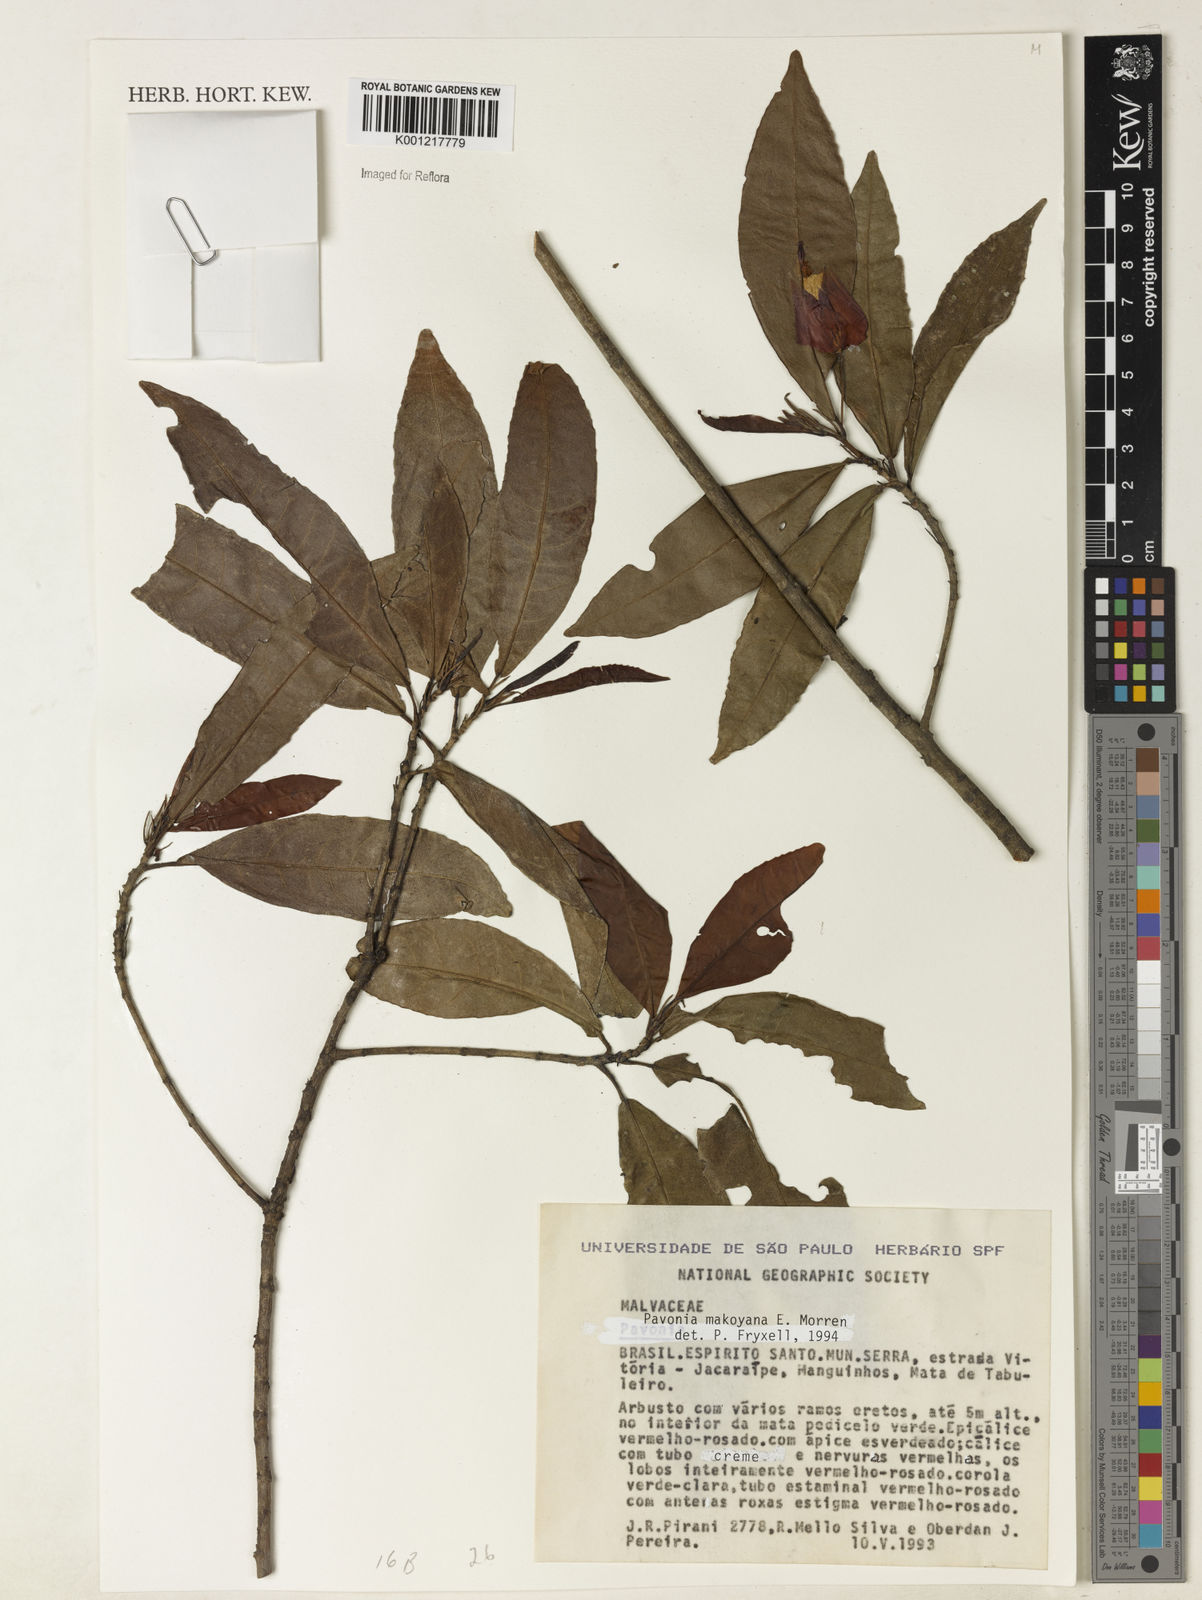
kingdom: Plantae
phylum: Tracheophyta
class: Magnoliopsida
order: Malvales
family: Malvaceae
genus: Pavonia
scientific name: Pavonia makoyana
